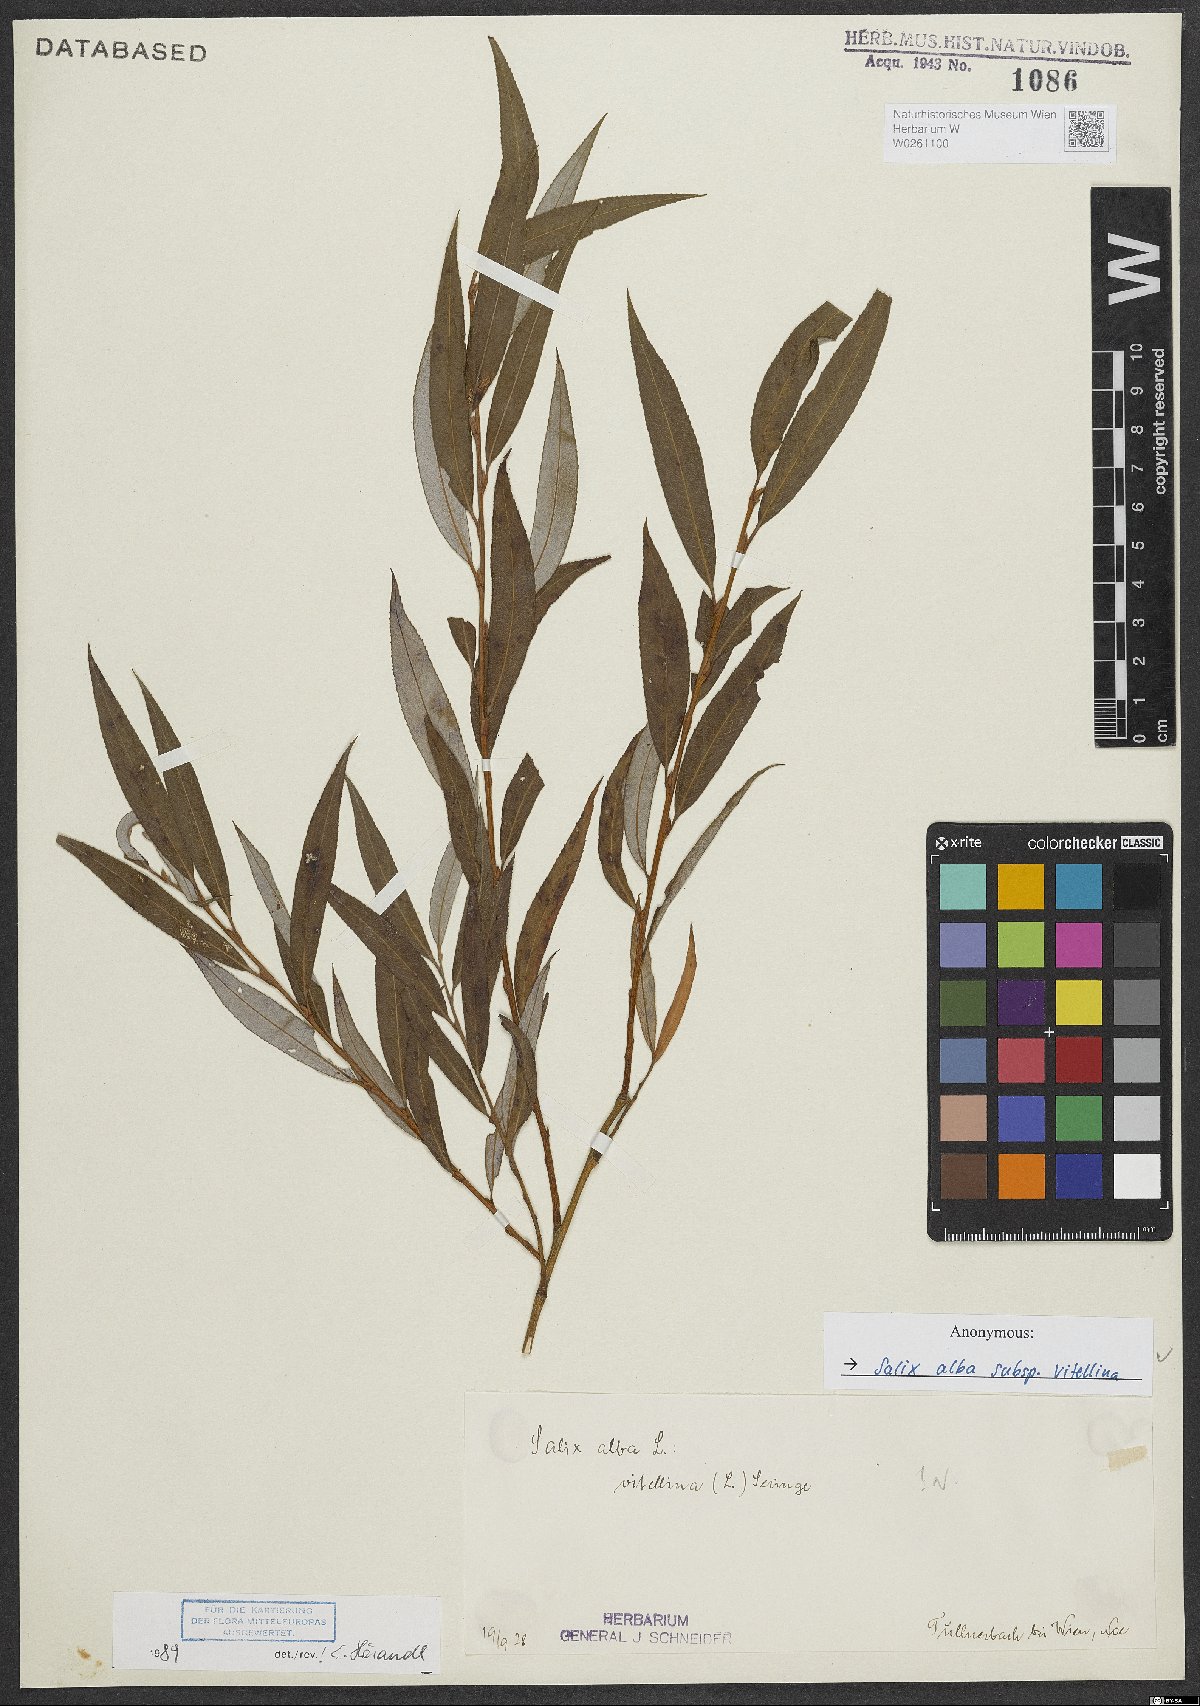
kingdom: Plantae
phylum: Tracheophyta
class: Magnoliopsida
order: Malpighiales
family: Salicaceae
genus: Salix
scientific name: Salix alba
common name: White willow
